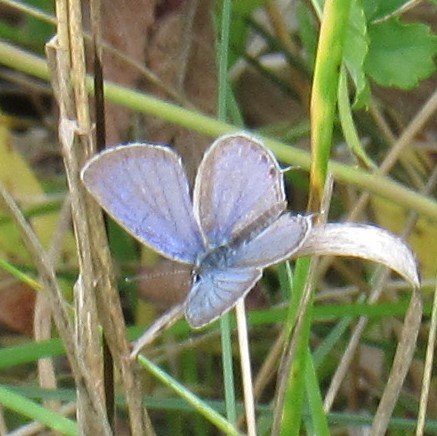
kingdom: Animalia
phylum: Arthropoda
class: Insecta
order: Lepidoptera
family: Lycaenidae
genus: Elkalyce
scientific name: Elkalyce comyntas
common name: Eastern Tailed-Blue
